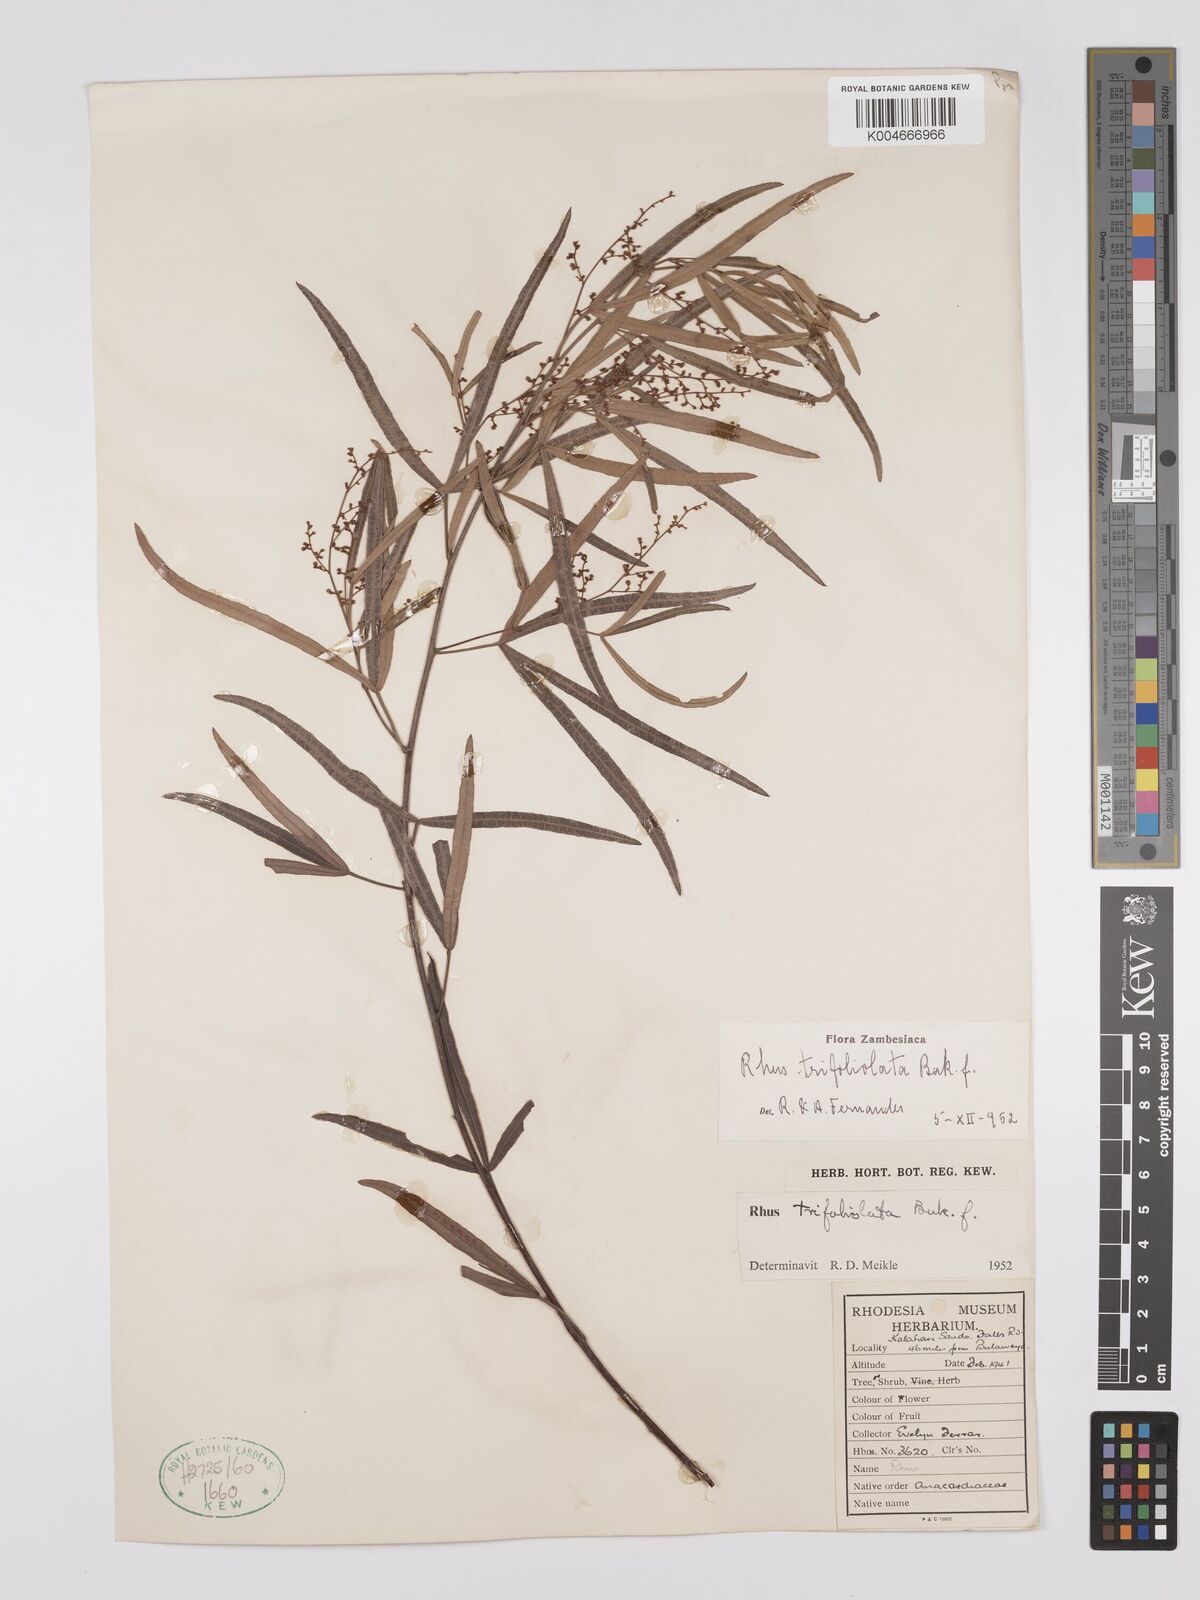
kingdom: Plantae
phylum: Tracheophyta
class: Magnoliopsida
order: Sapindales
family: Anacardiaceae
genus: Searsia
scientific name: Searsia magalismontana
